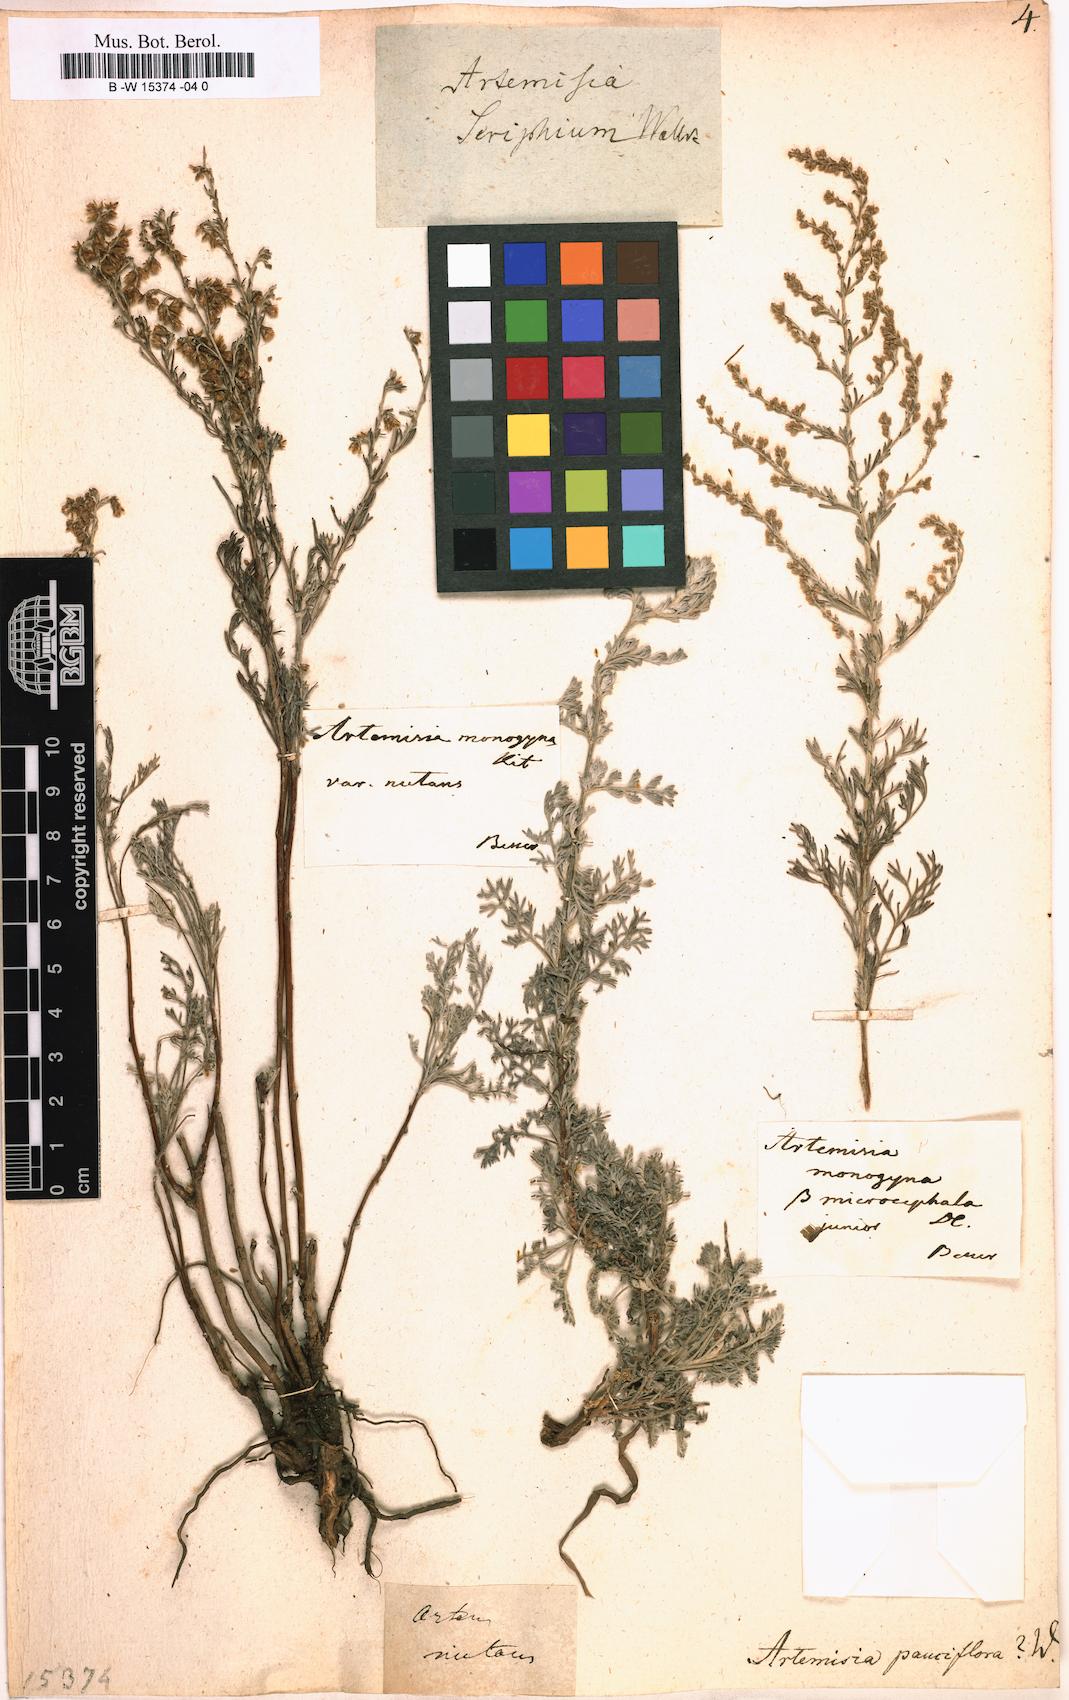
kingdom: Plantae
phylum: Tracheophyta
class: Magnoliopsida
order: Asterales
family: Asteraceae
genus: Artemisia
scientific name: Artemisia pauciflora
